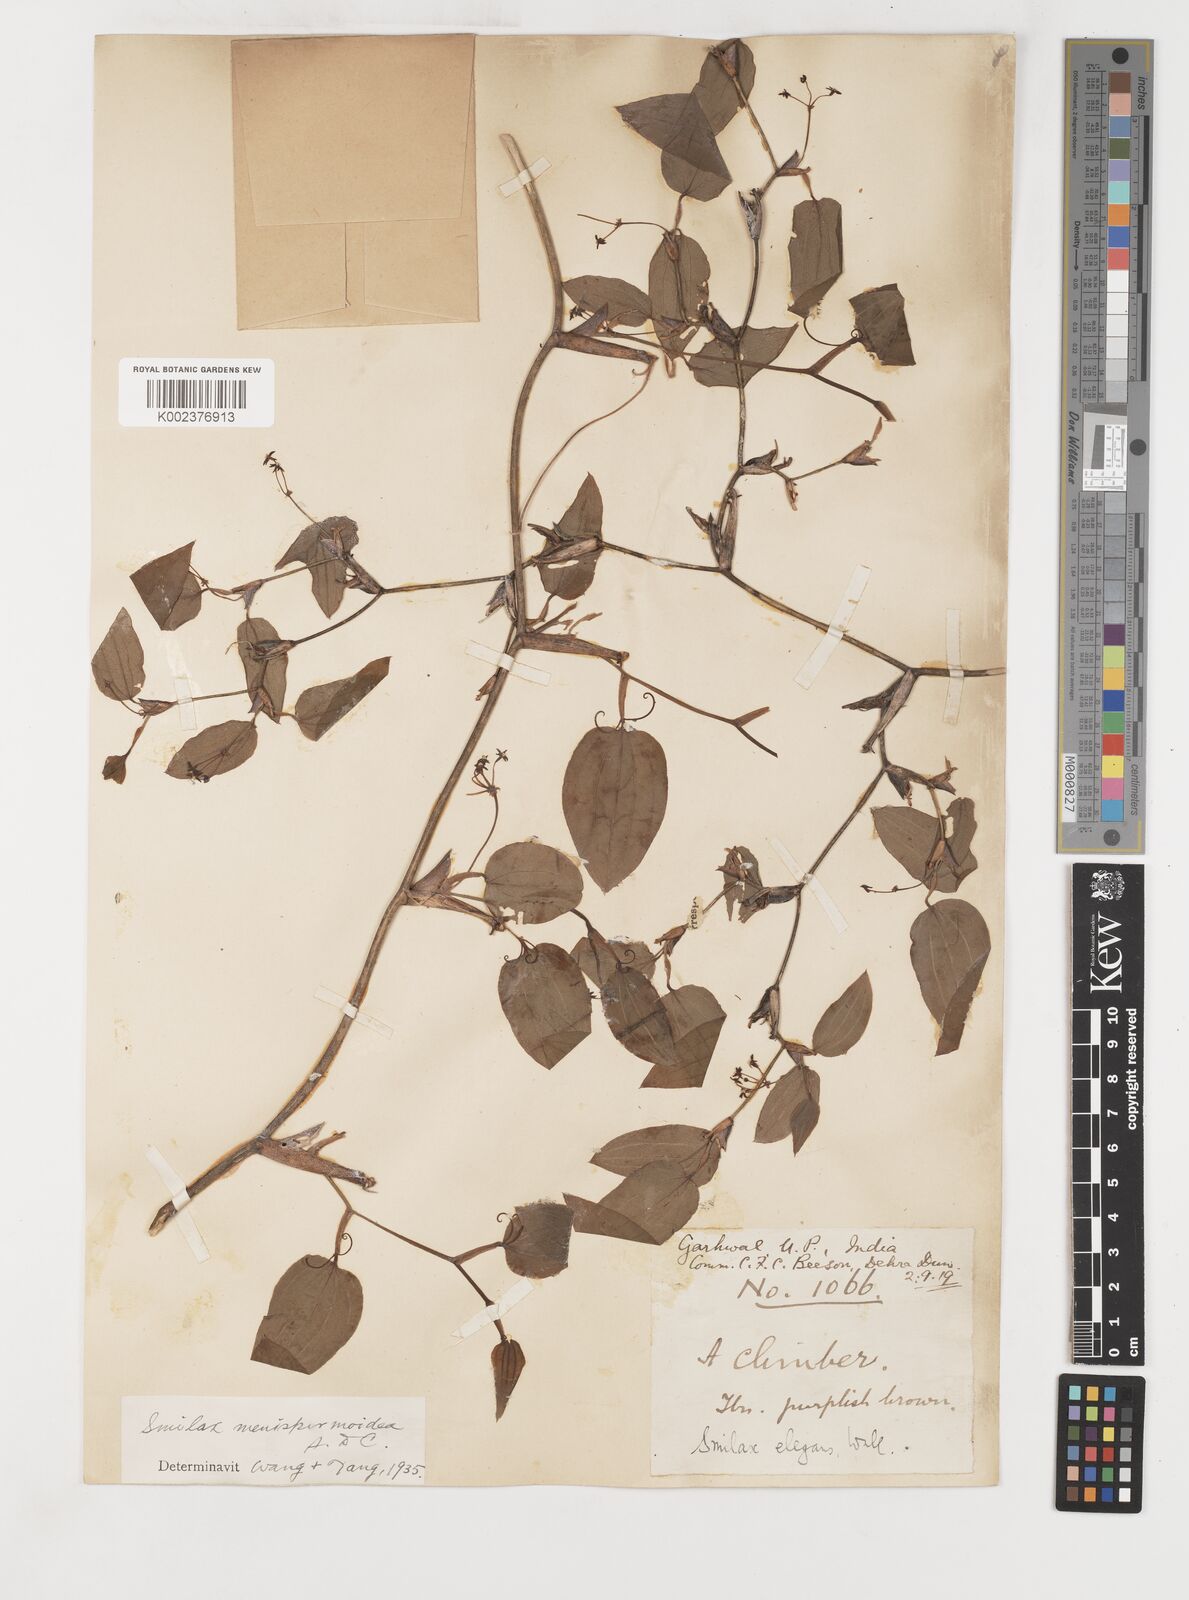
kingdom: Plantae
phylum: Tracheophyta
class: Liliopsida
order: Liliales
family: Smilacaceae
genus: Smilax
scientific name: Smilax menispermoidea
